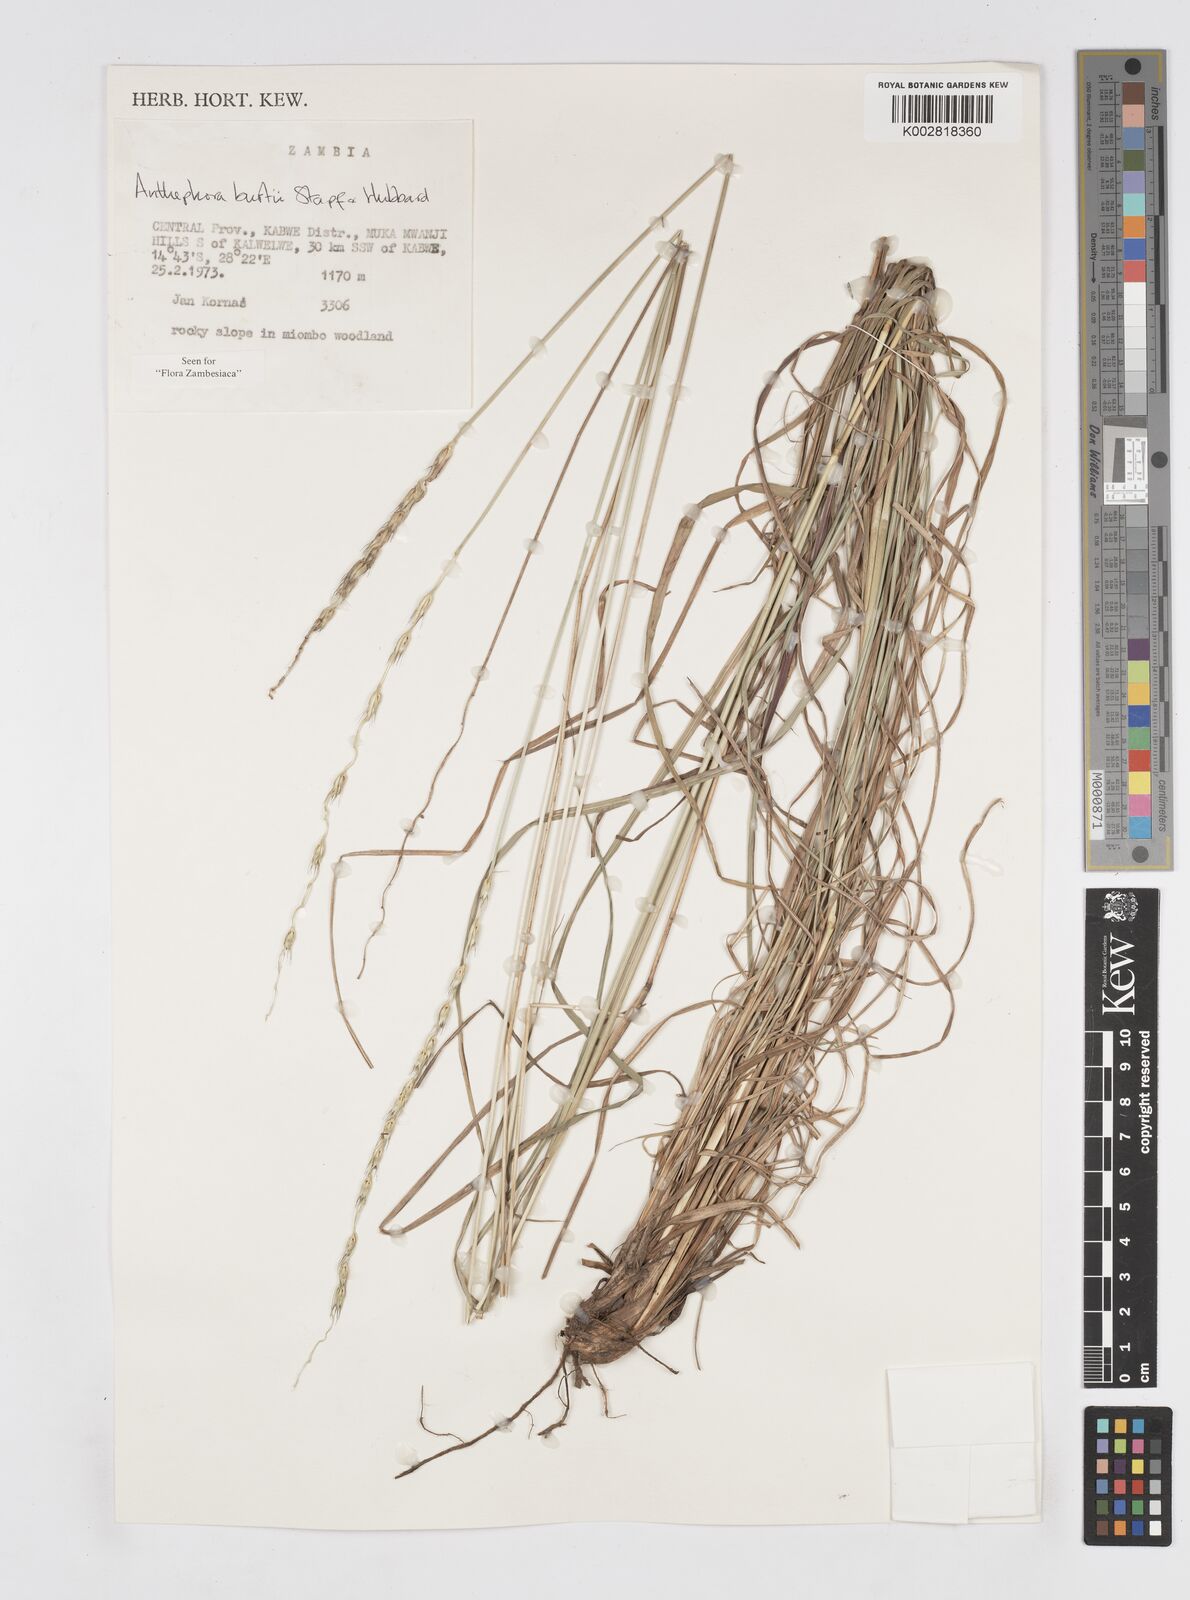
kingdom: Plantae
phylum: Tracheophyta
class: Liliopsida
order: Poales
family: Poaceae
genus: Anthephora
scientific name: Anthephora elongata
